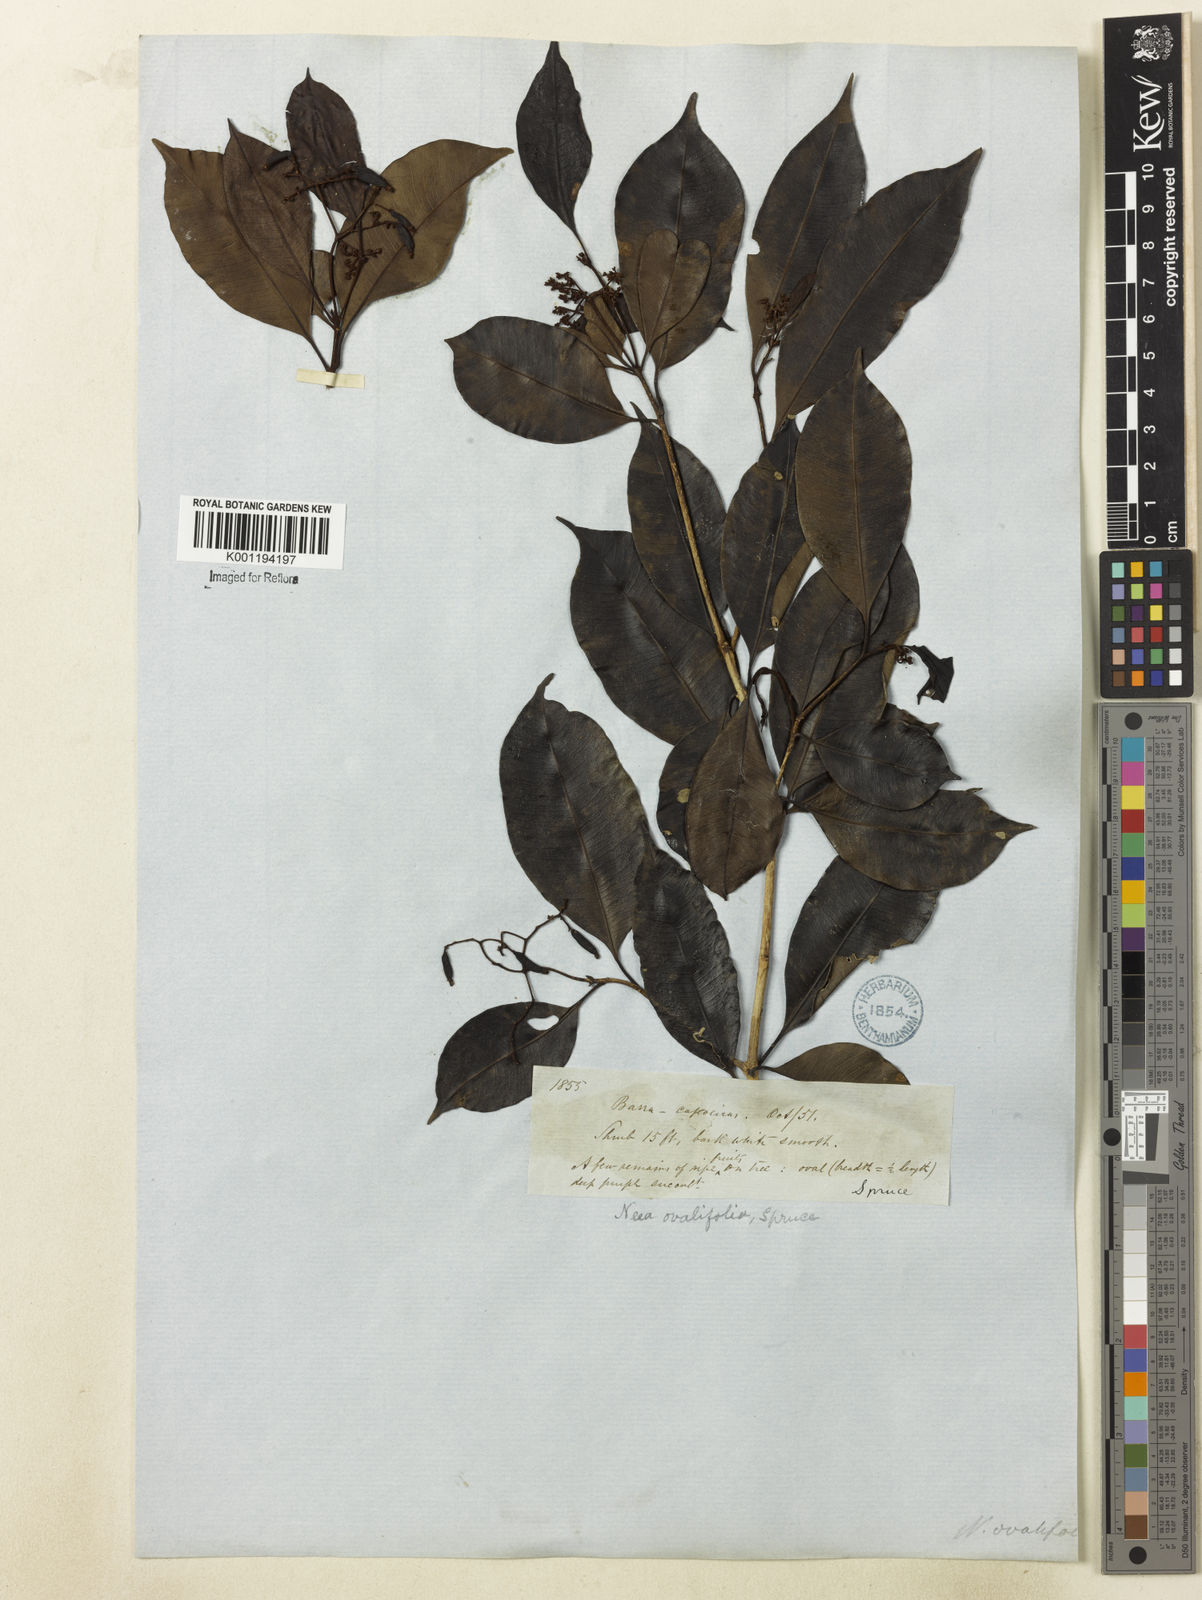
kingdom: Plantae
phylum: Tracheophyta
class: Magnoliopsida
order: Caryophyllales
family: Nyctaginaceae
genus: Neea
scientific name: Neea ovalifolia
